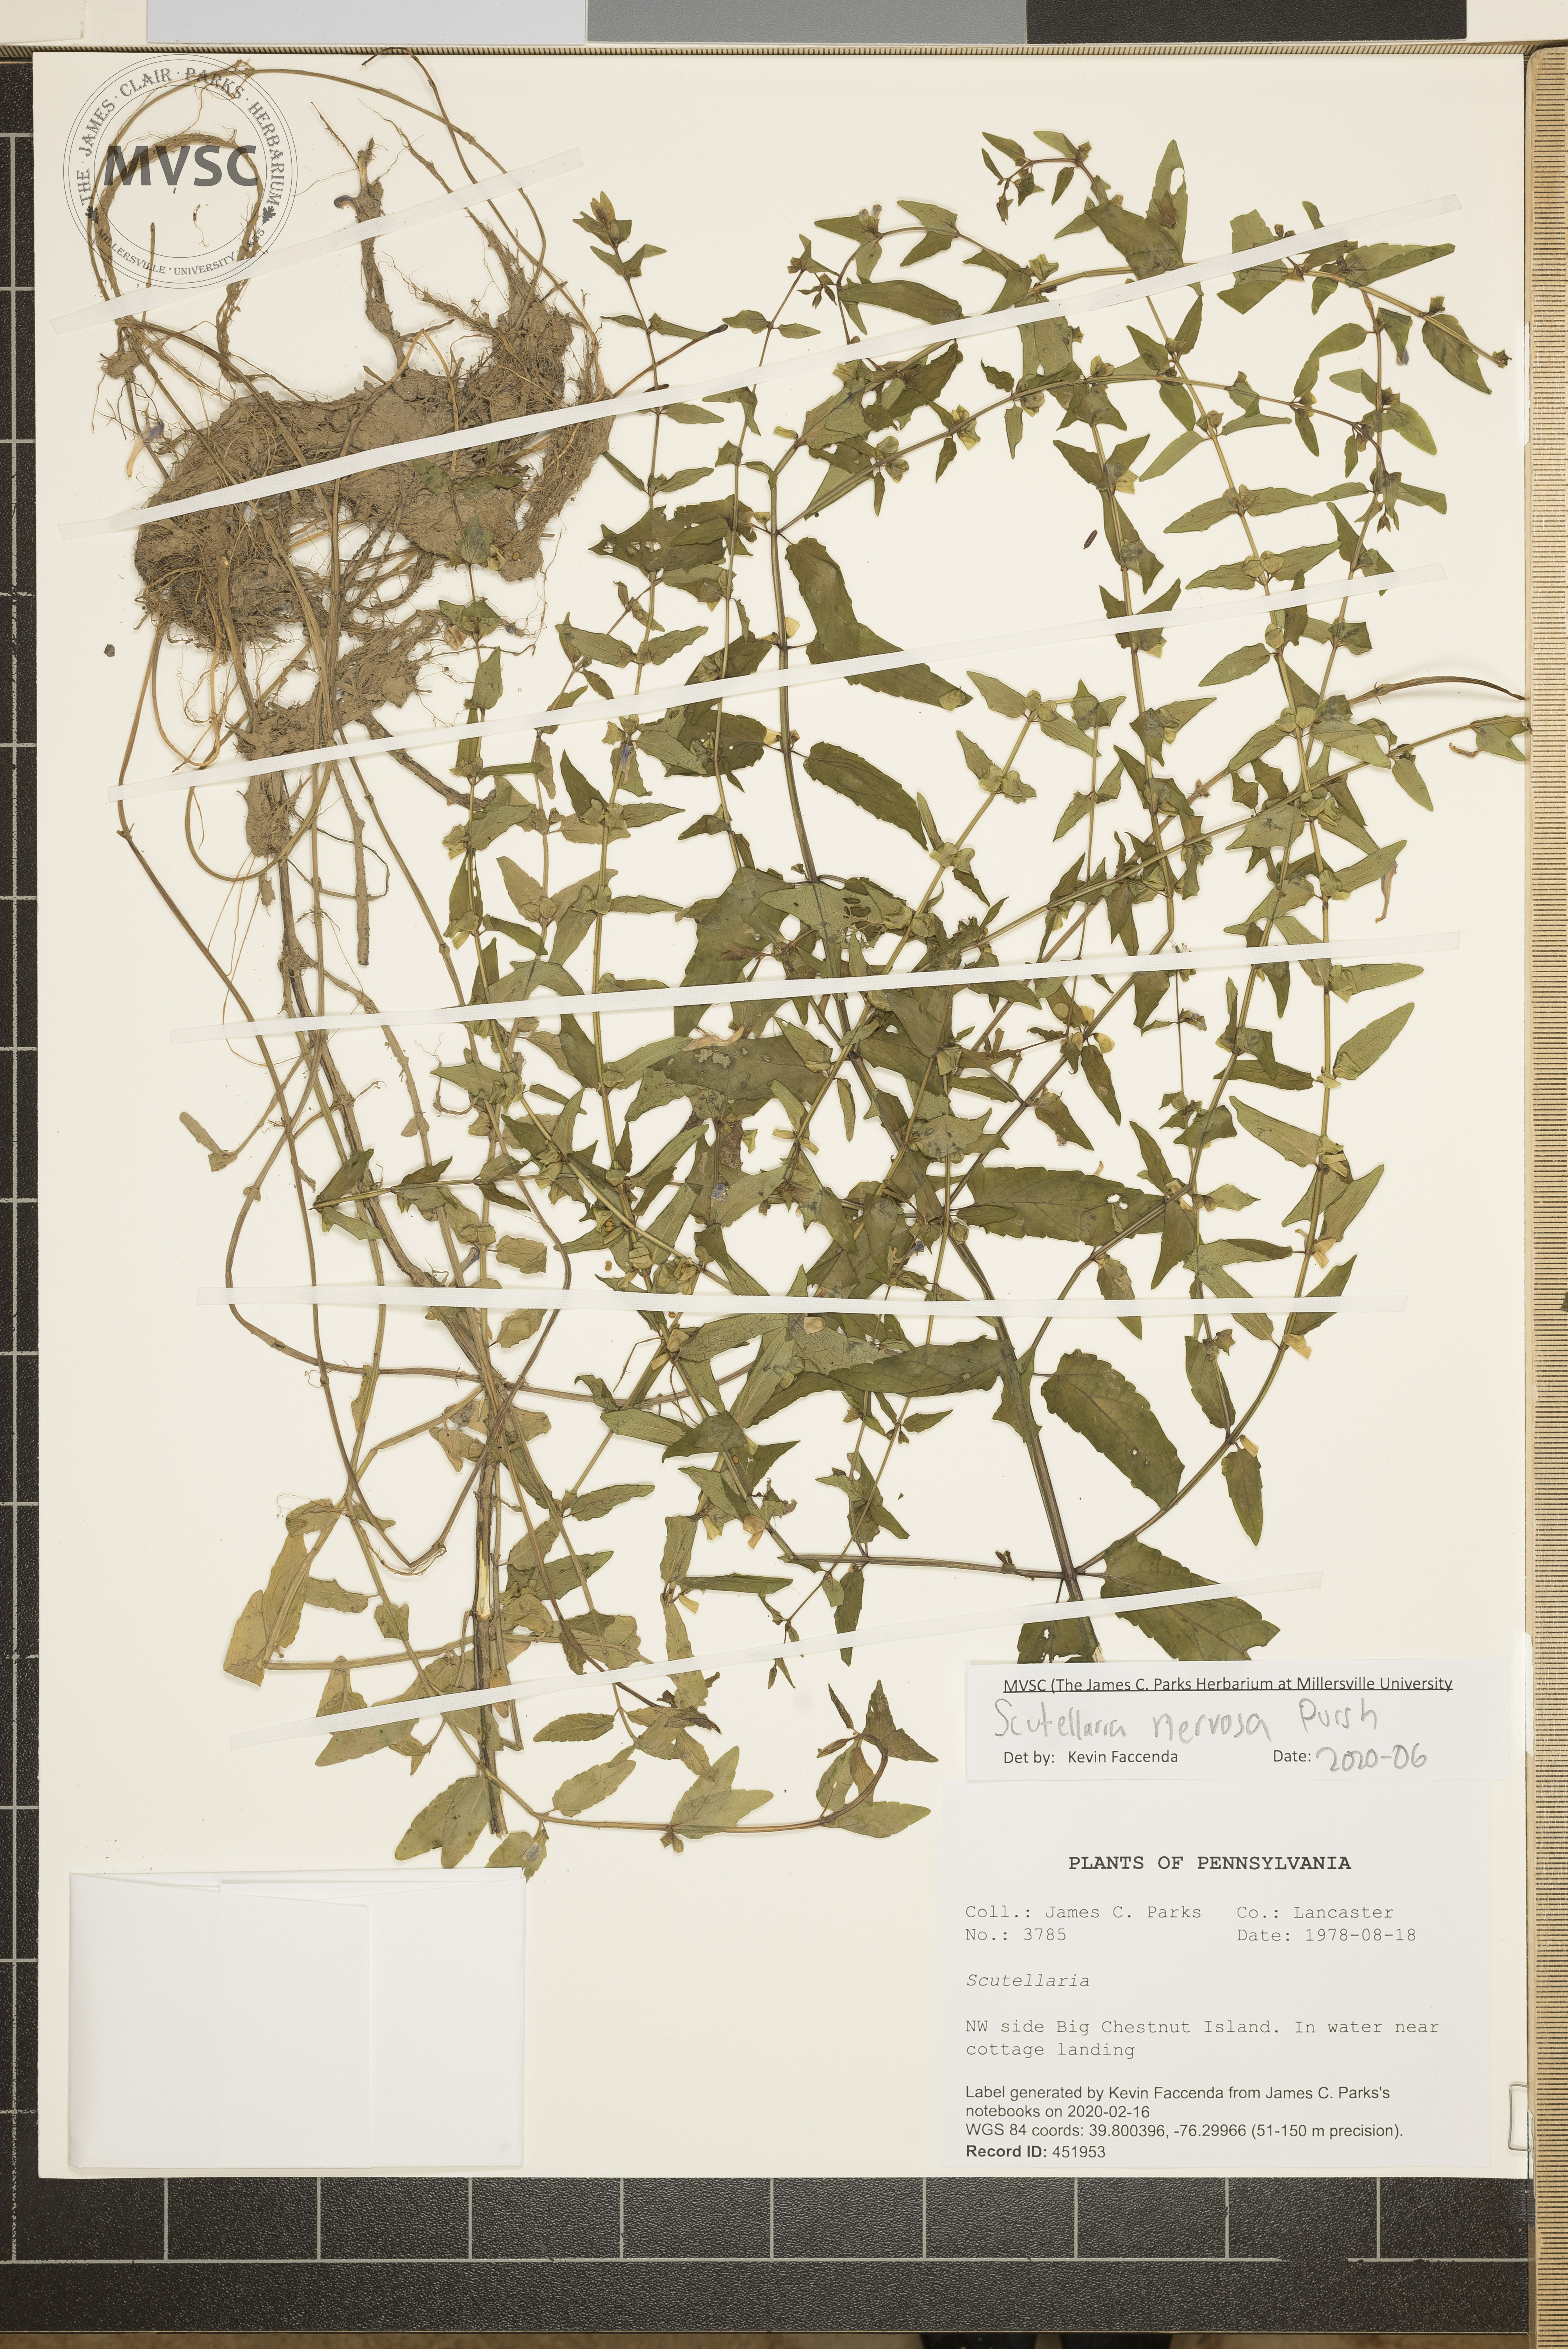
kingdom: Plantae
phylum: Tracheophyta
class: Magnoliopsida
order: Lamiales
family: Lamiaceae
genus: Scutellaria
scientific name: Scutellaria nervosa
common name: Bottomland skullcap
